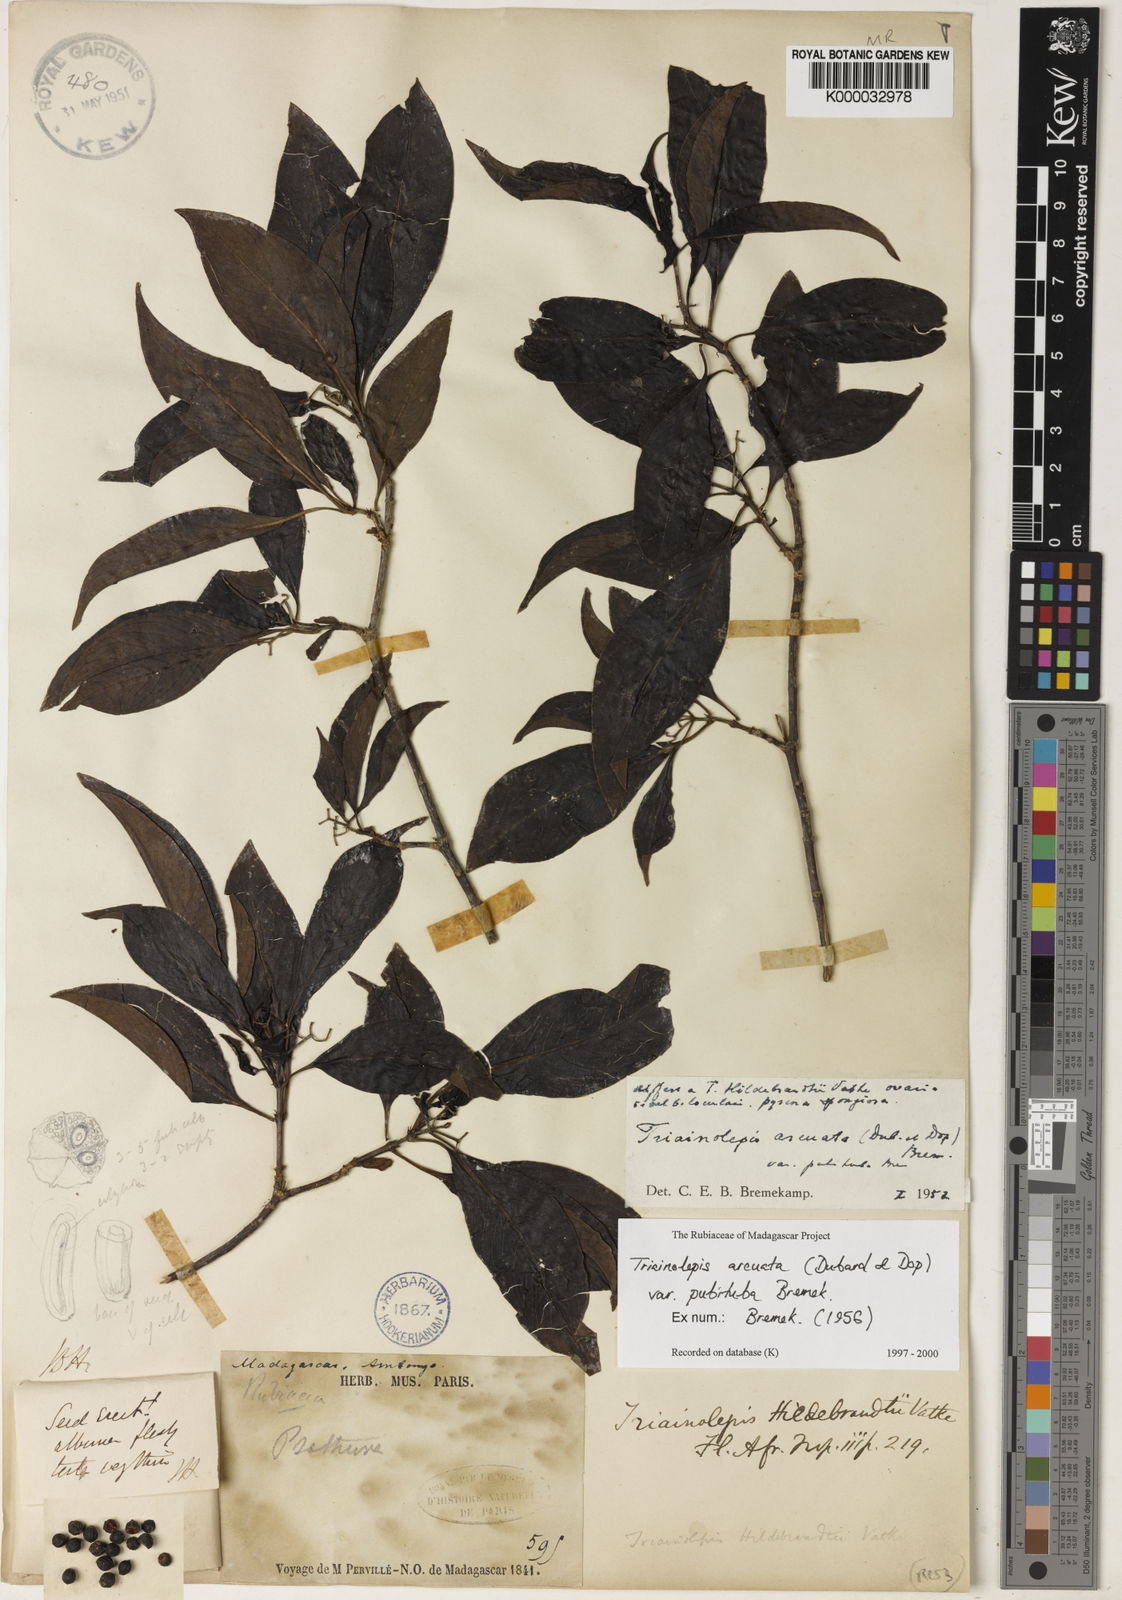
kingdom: Plantae
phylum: Tracheophyta
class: Magnoliopsida
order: Gentianales
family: Rubiaceae
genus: Triainolepis
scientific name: Triainolepis arcuata
